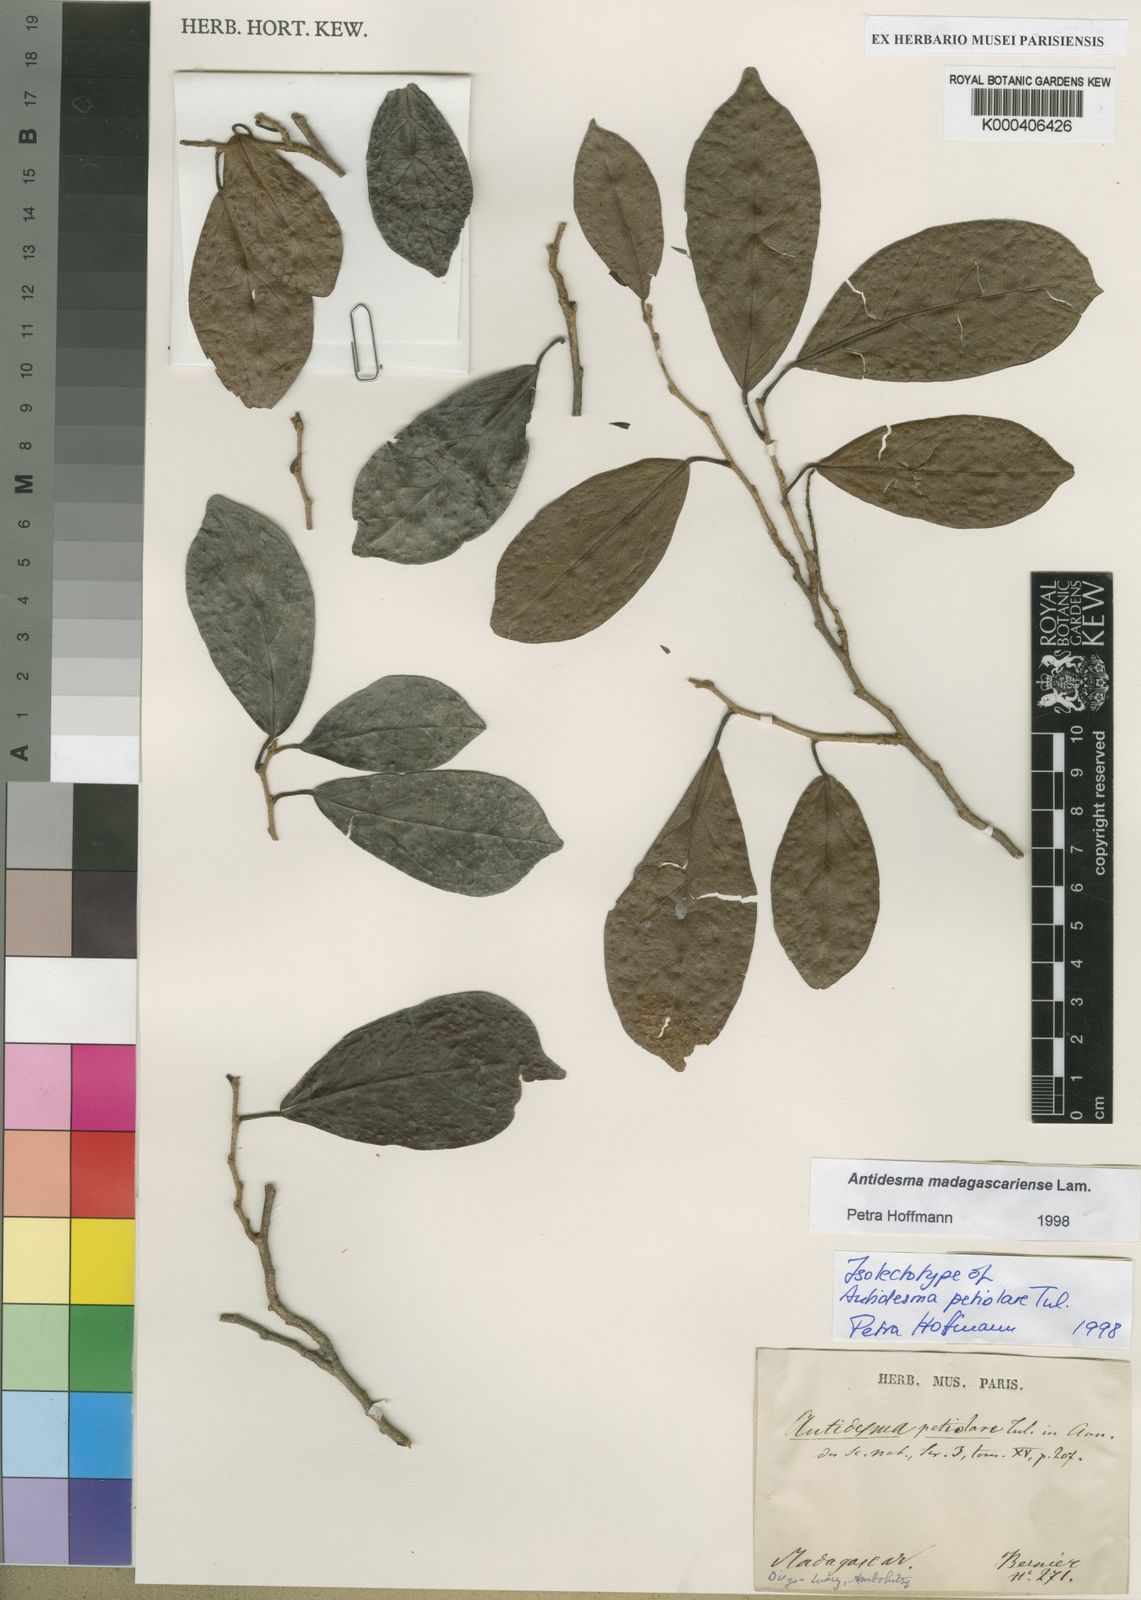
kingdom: Plantae
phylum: Tracheophyta
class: Magnoliopsida
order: Malpighiales
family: Phyllanthaceae
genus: Antidesma
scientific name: Antidesma madagascariense
